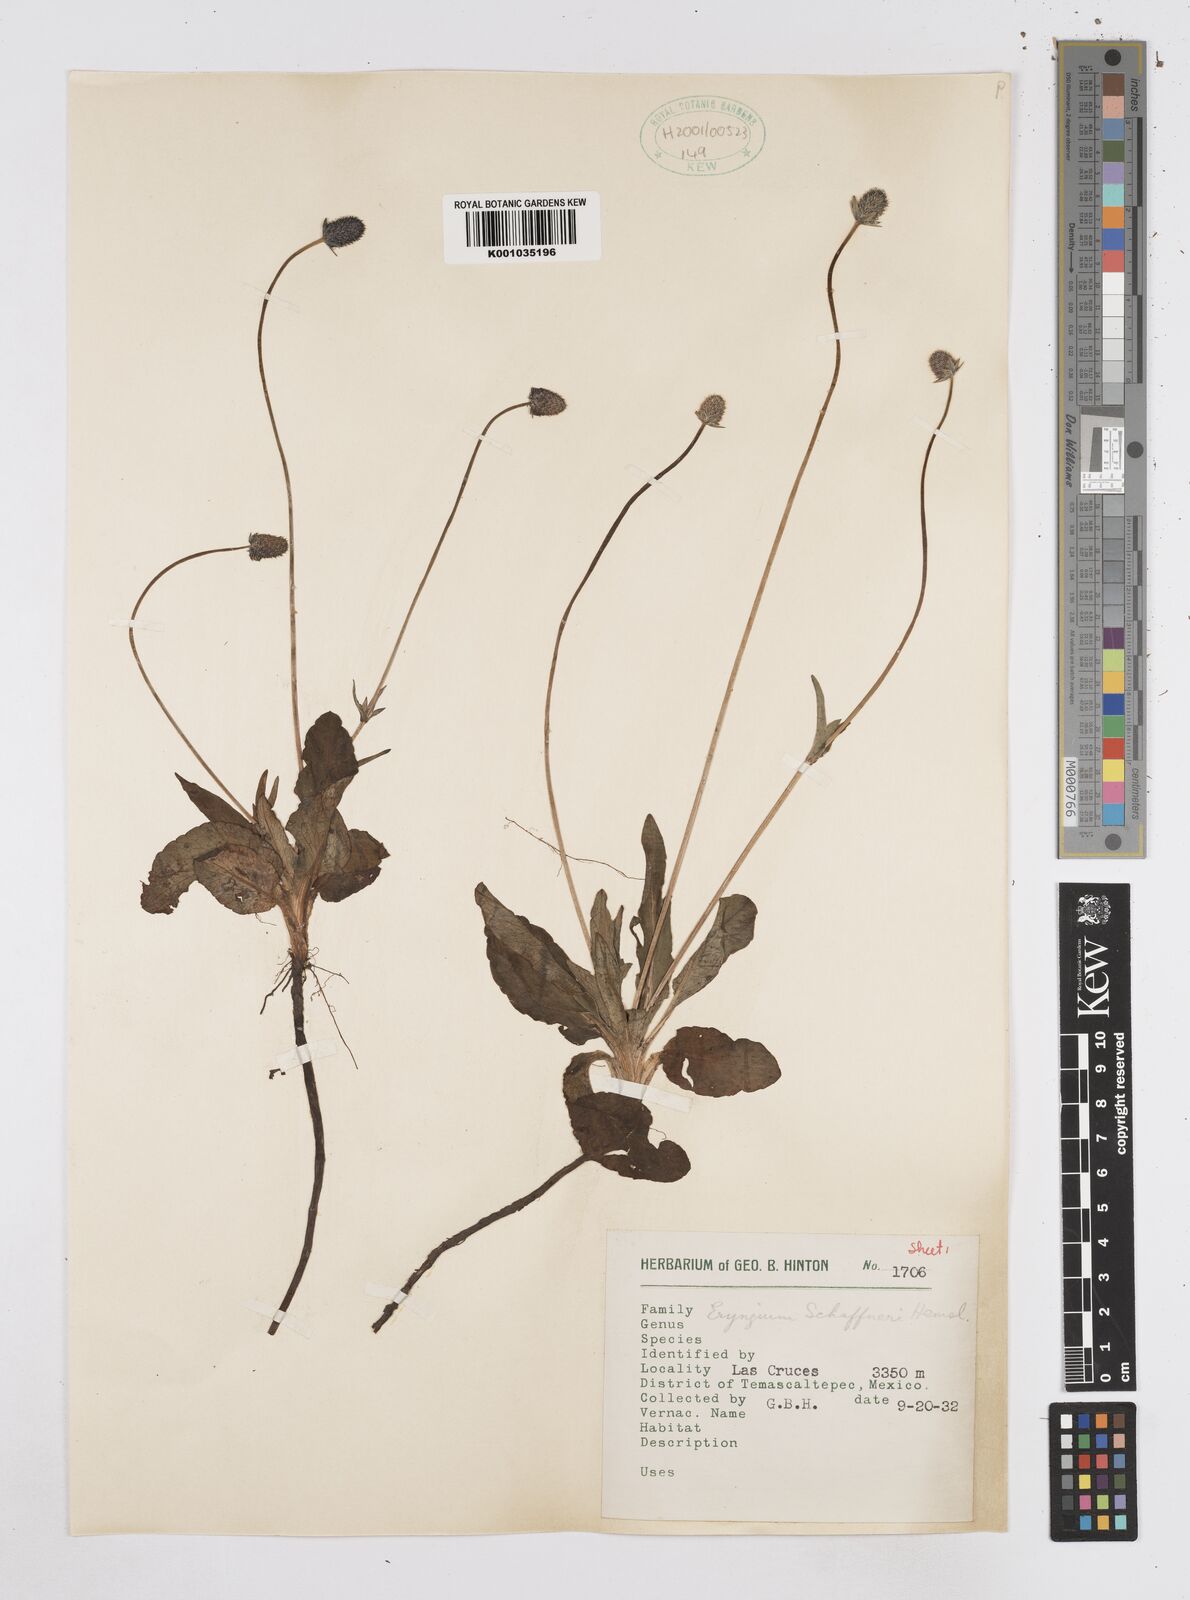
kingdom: Plantae
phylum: Tracheophyta
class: Magnoliopsida
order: Apiales
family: Apiaceae
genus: Eryngium
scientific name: Eryngium bonplandii
